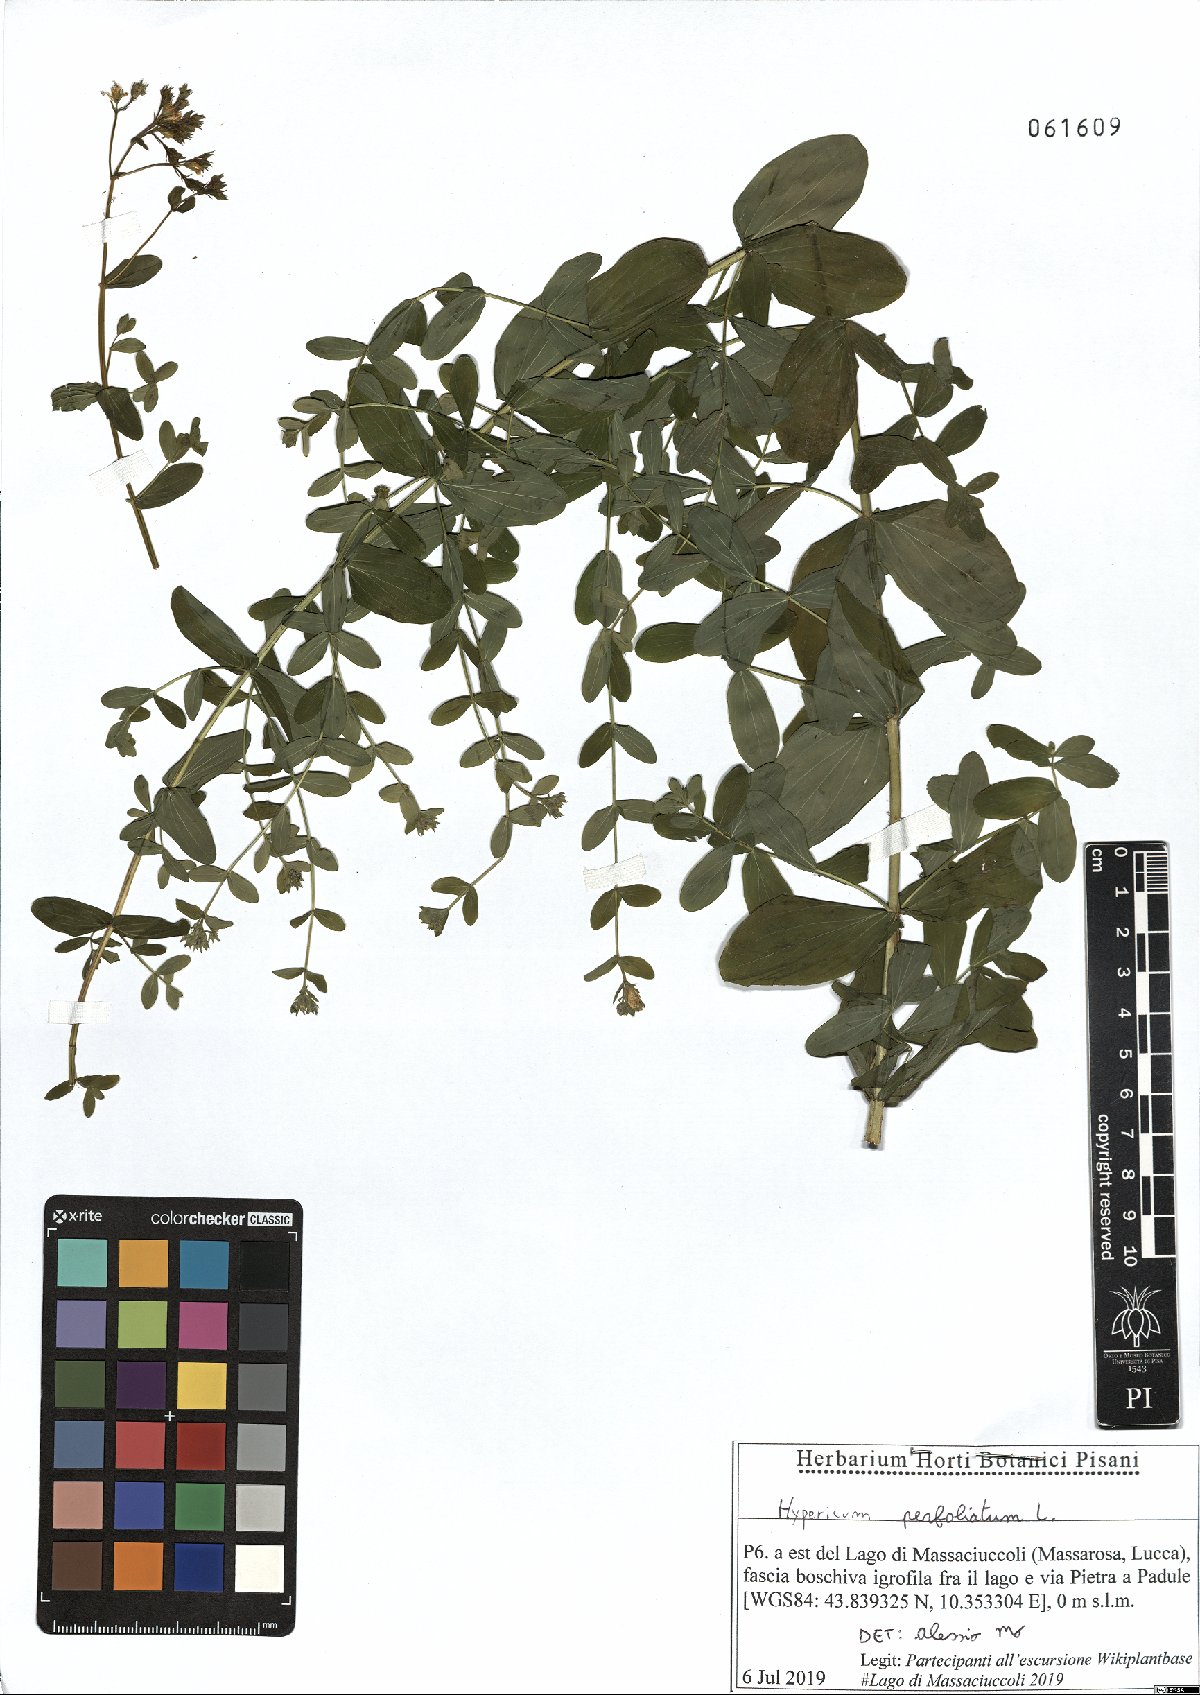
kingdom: Plantae
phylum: Tracheophyta
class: Magnoliopsida
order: Malpighiales
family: Hypericaceae
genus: Hypericum
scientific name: Hypericum perfoliatum
